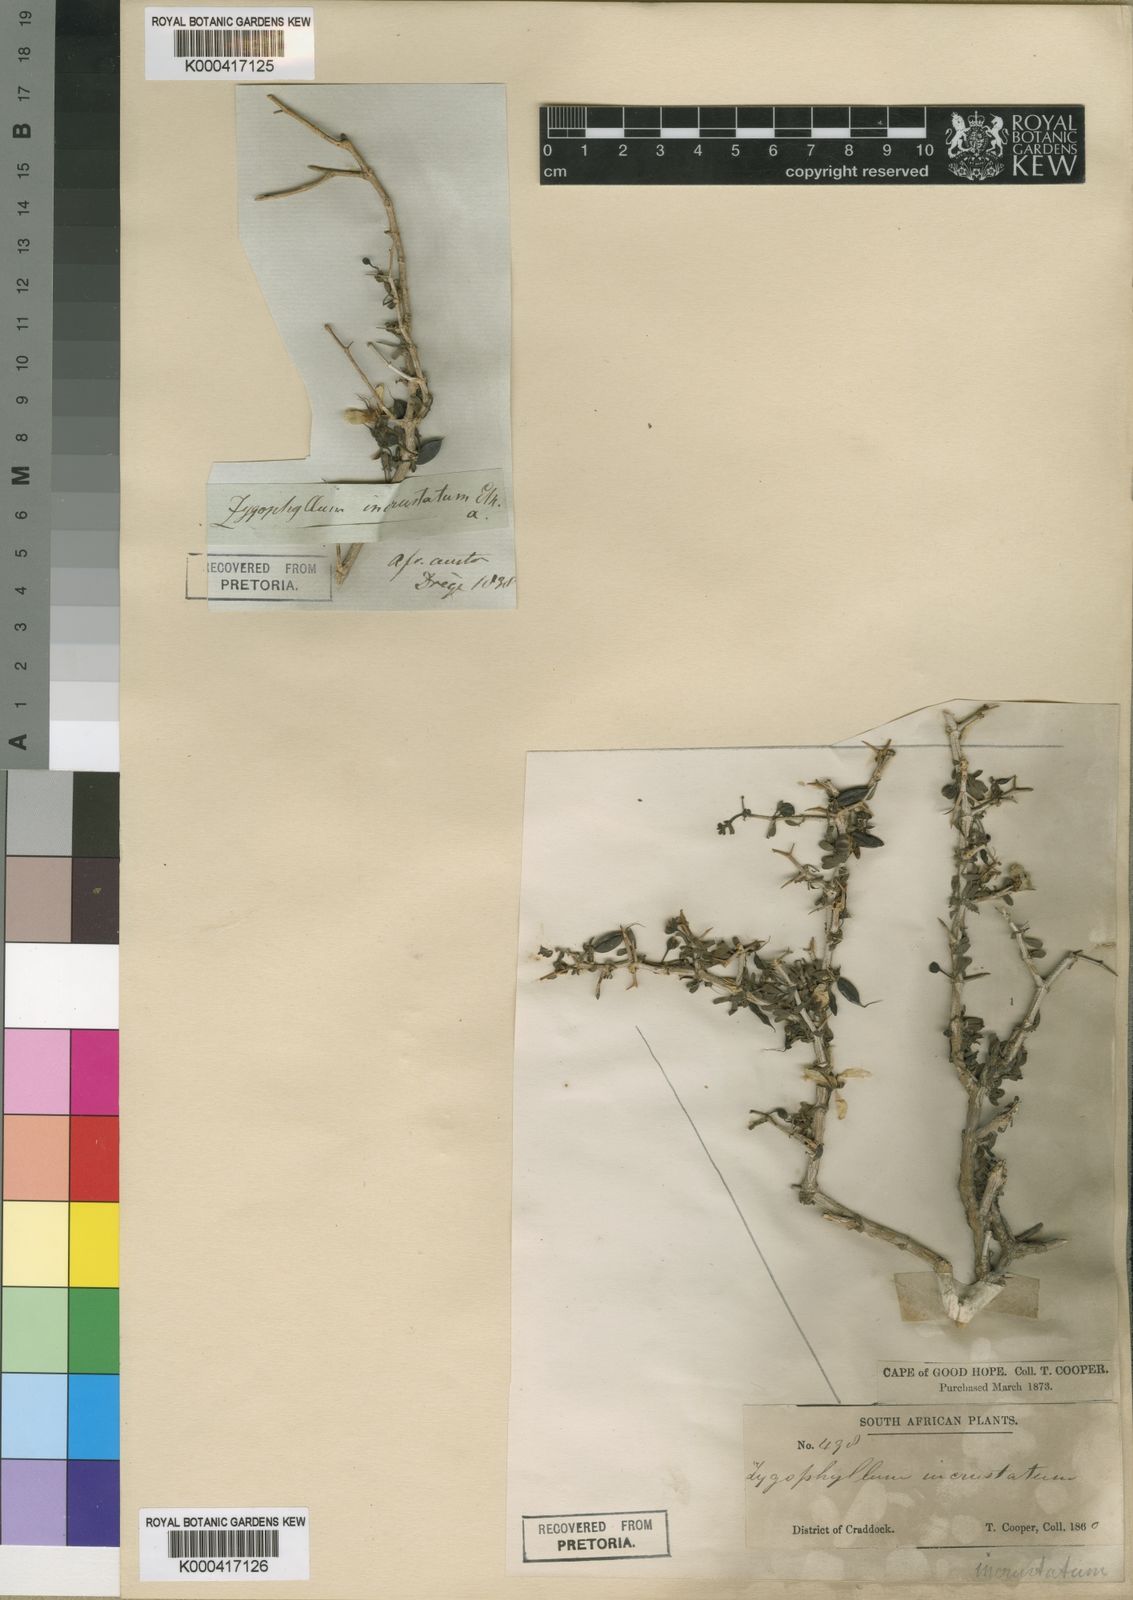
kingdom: Plantae
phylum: Tracheophyta
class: Magnoliopsida
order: Zygophyllales
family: Zygophyllaceae
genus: Roepera
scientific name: Roepera incrustata
